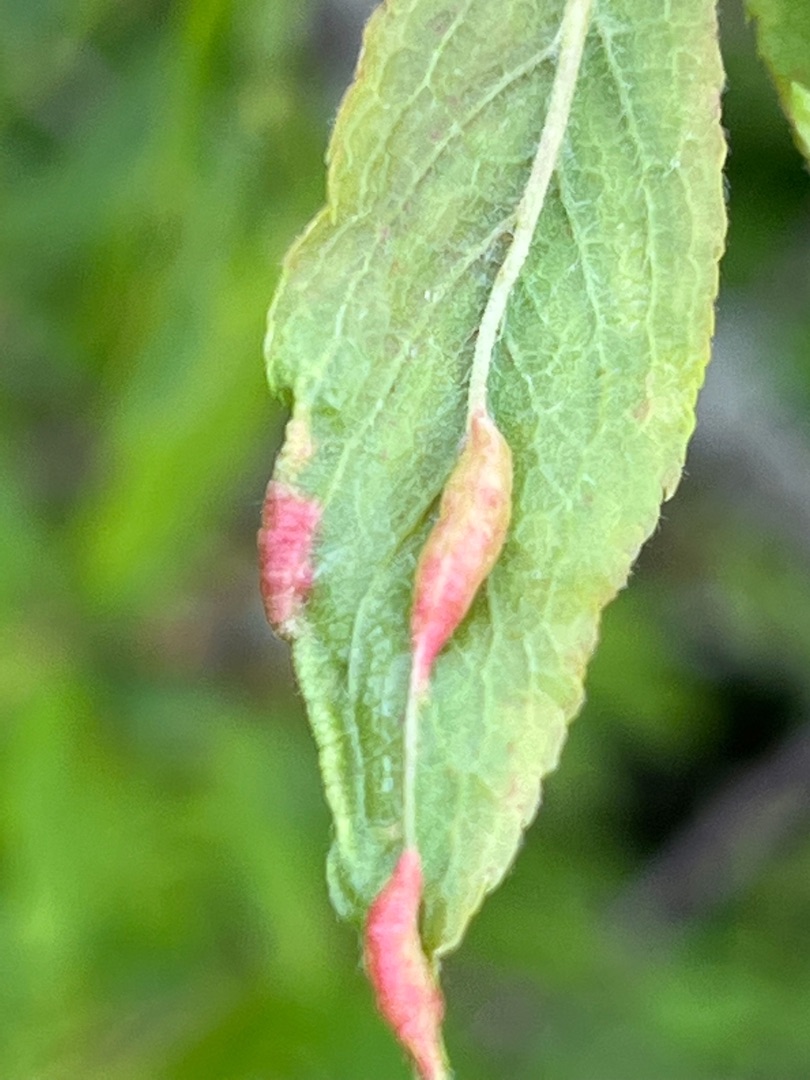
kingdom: Animalia
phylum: Arthropoda
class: Insecta
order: Diptera
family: Cecidomyiidae
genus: Putoniella
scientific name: Putoniella pruni
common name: Slåenvulstgalmyg
